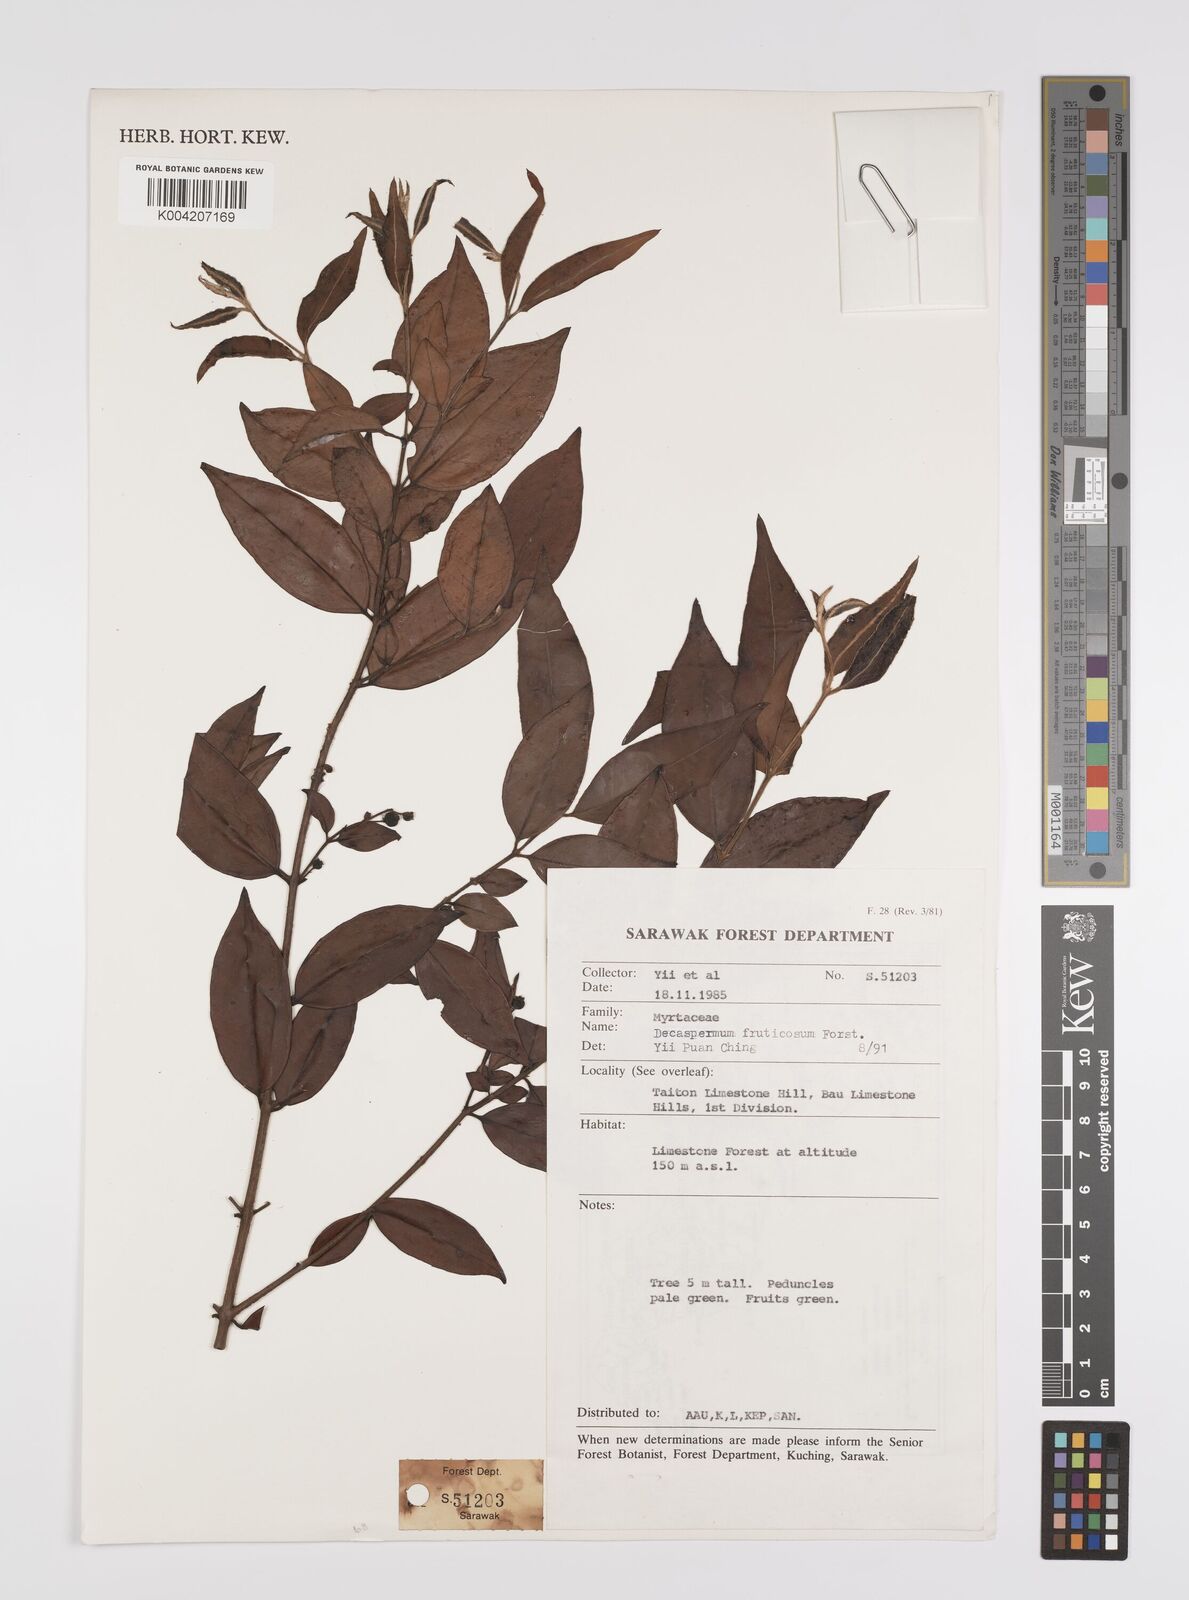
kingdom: Plantae
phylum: Tracheophyta
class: Magnoliopsida
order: Myrtales
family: Myrtaceae
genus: Decaspermum
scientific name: Decaspermum fruticosum
